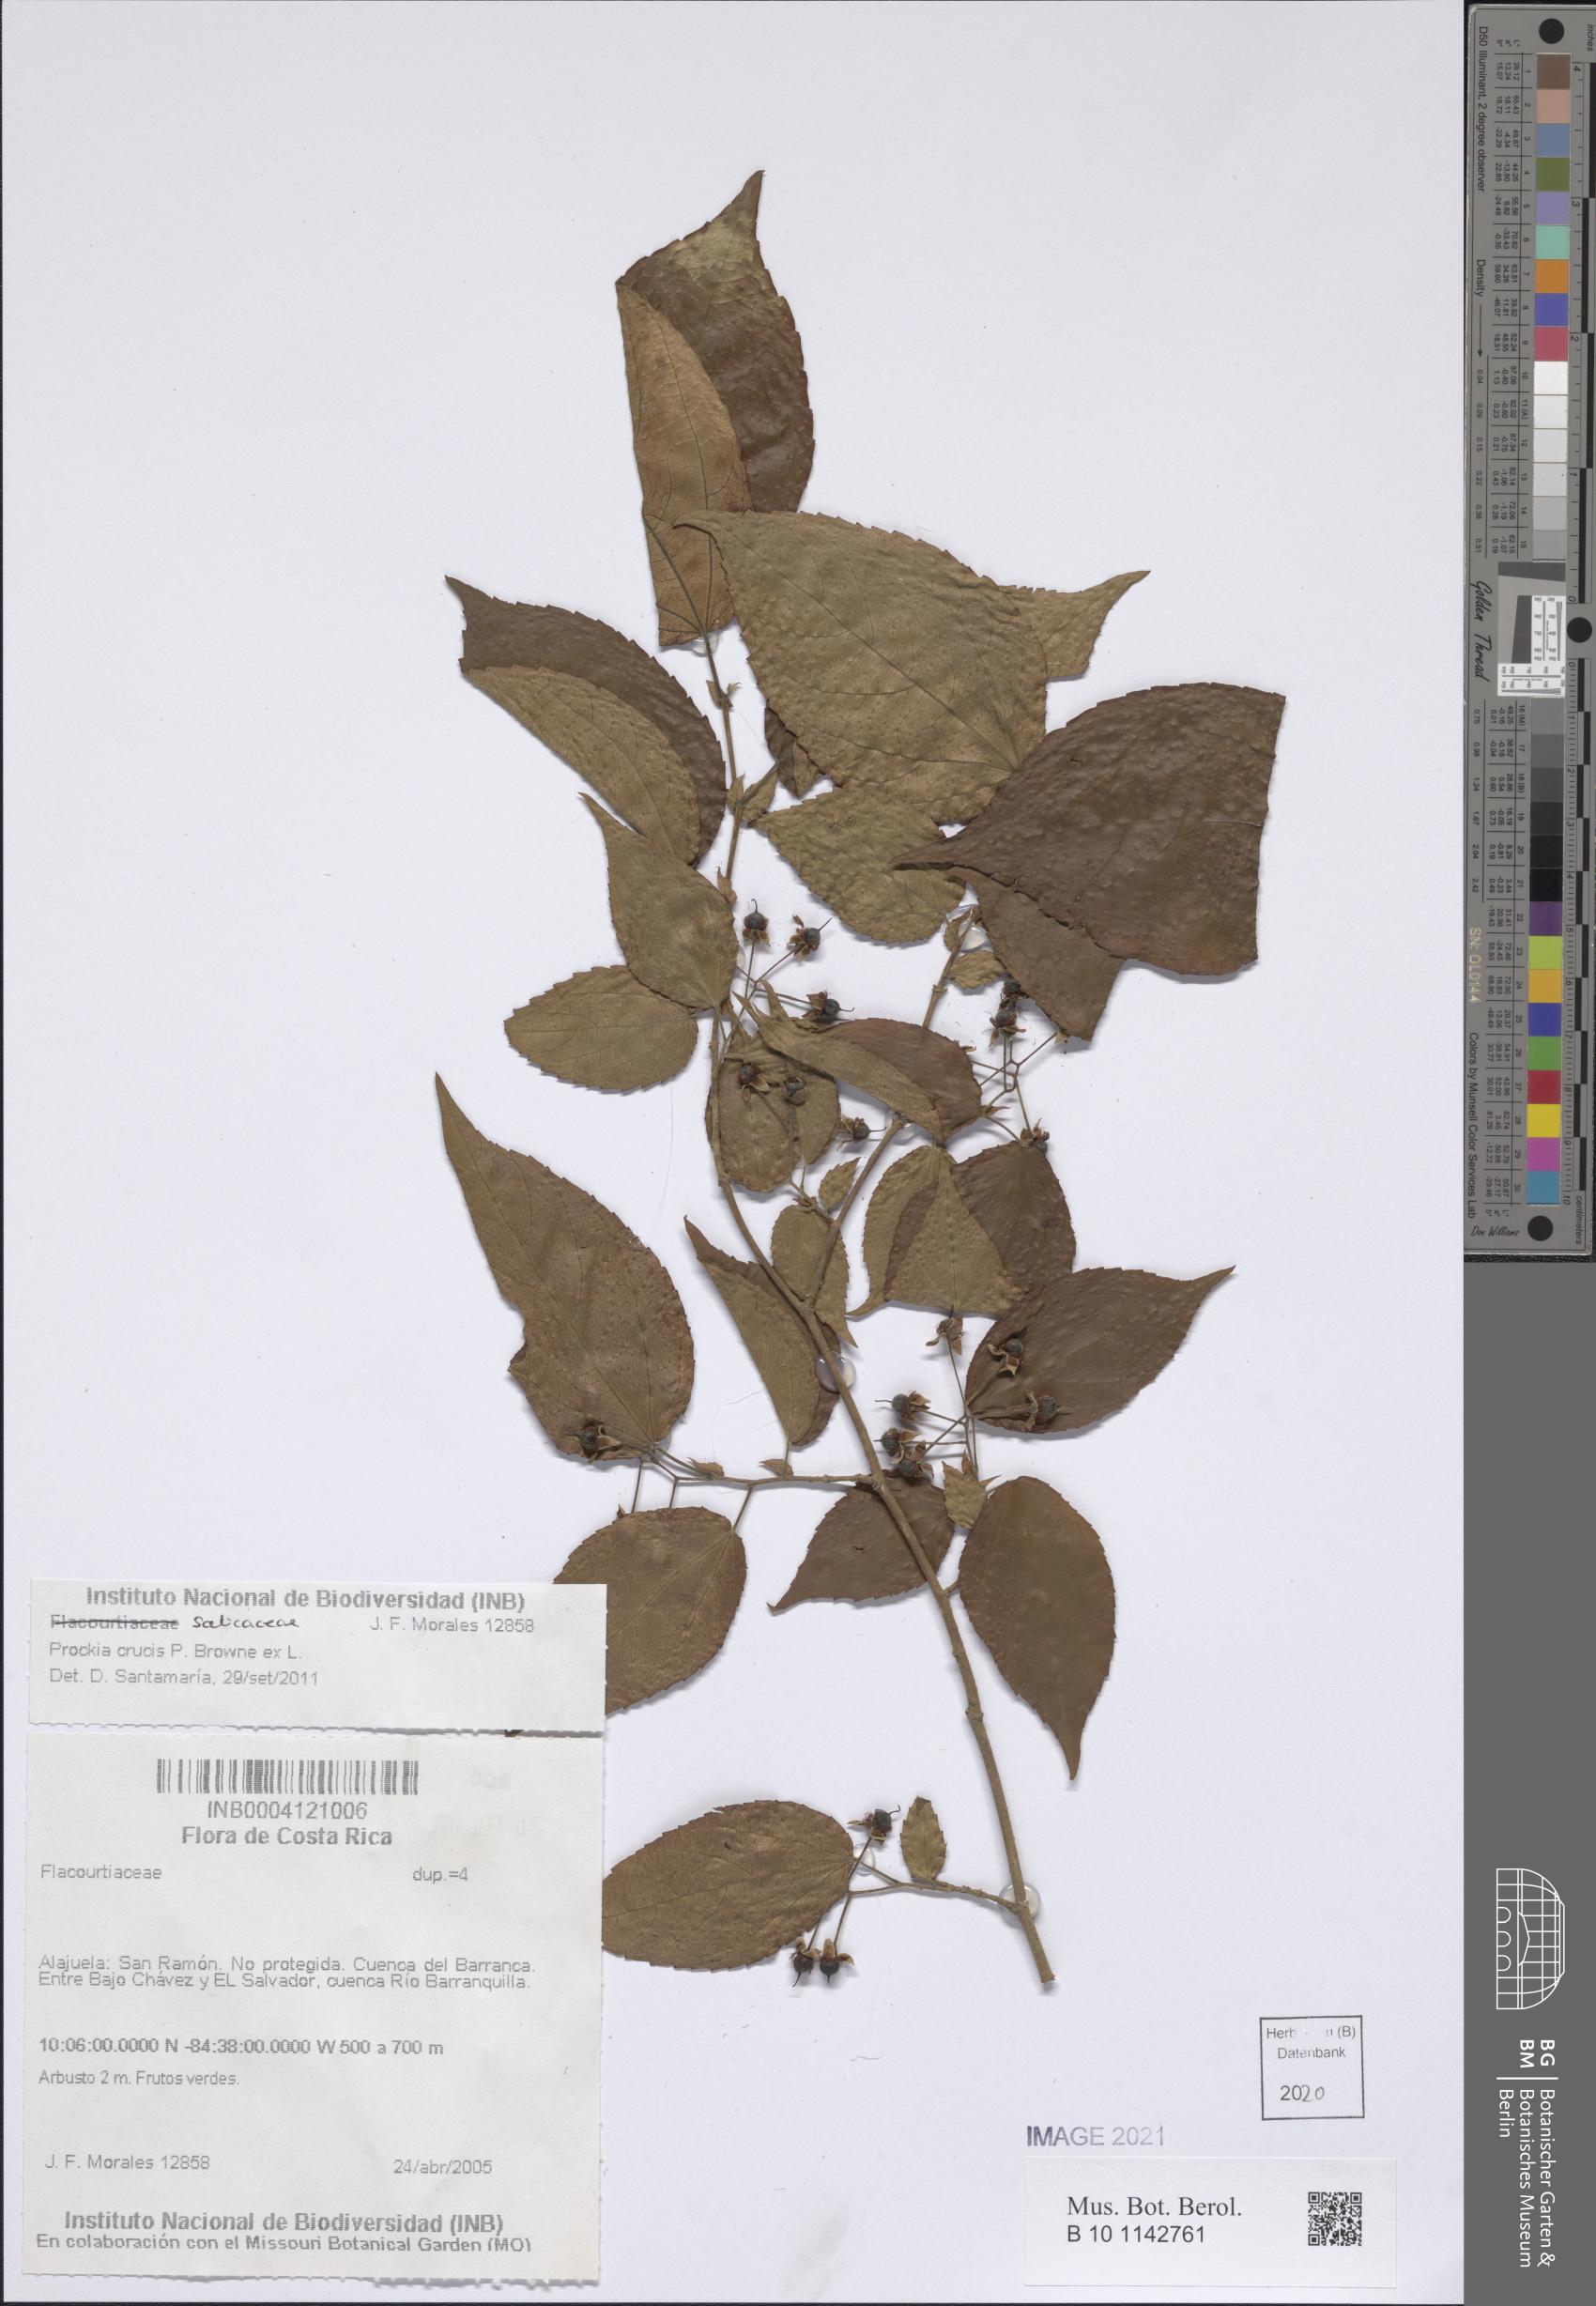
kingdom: Plantae
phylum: Tracheophyta
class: Magnoliopsida
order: Malpighiales
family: Salicaceae
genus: Prockia
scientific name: Prockia crucis
